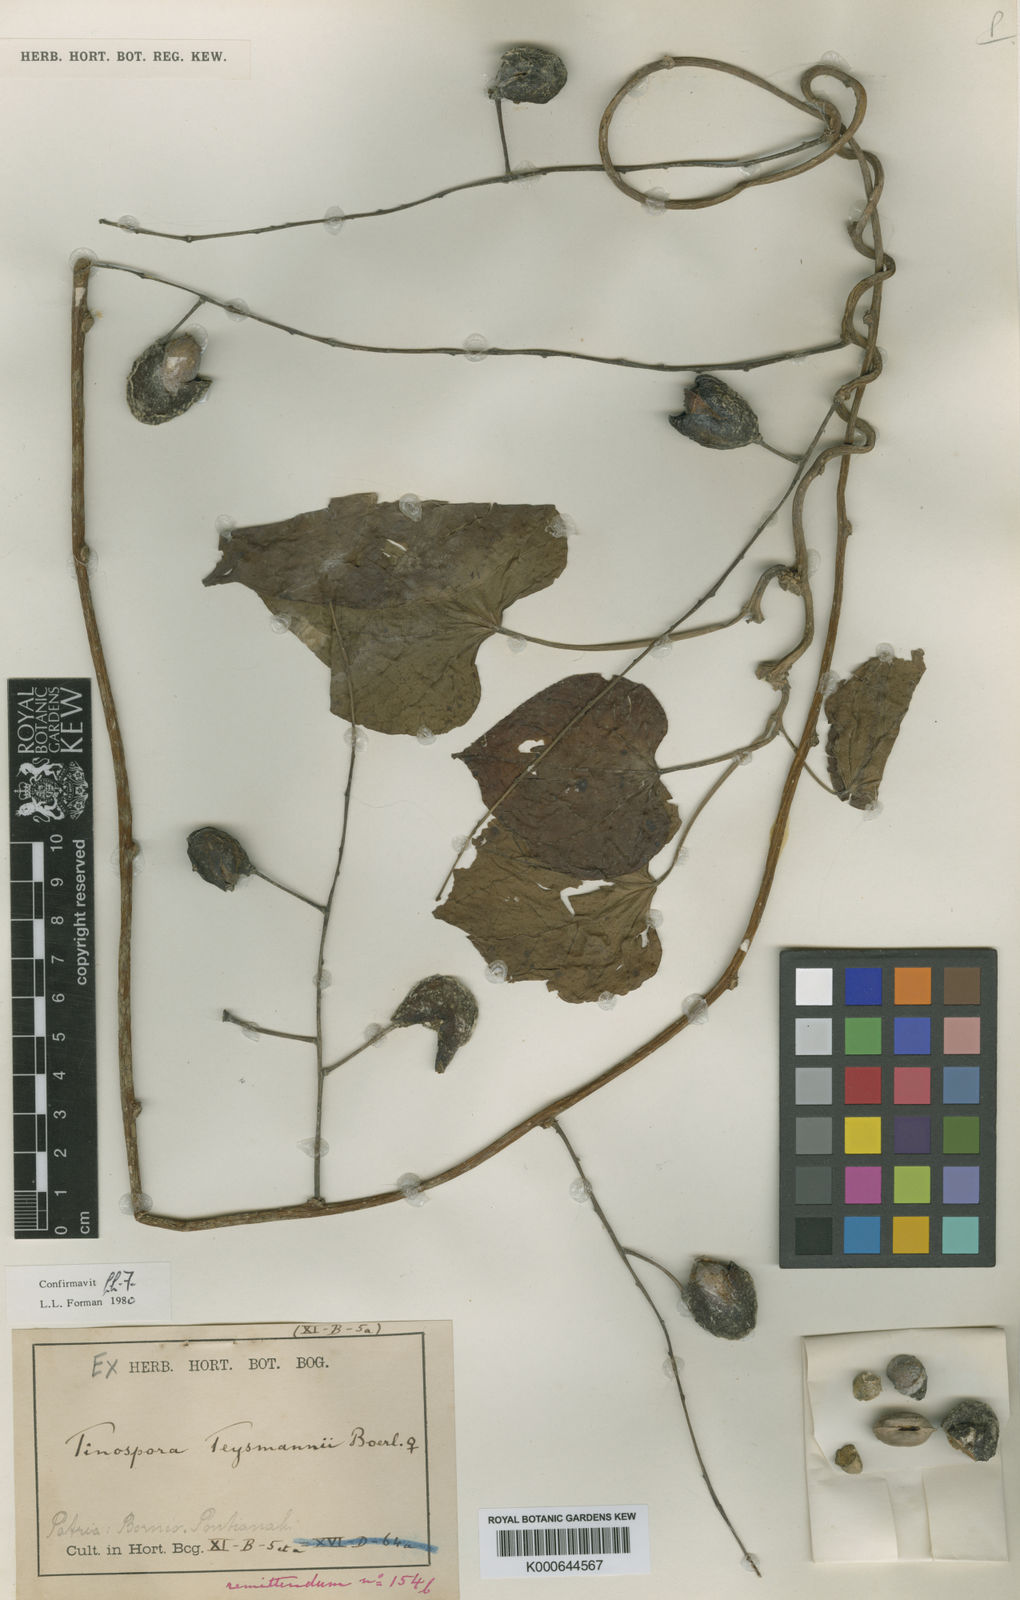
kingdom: Plantae
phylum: Tracheophyta
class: Magnoliopsida
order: Ranunculales
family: Menispermaceae
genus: Tinospora
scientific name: Tinospora teijsmannii
